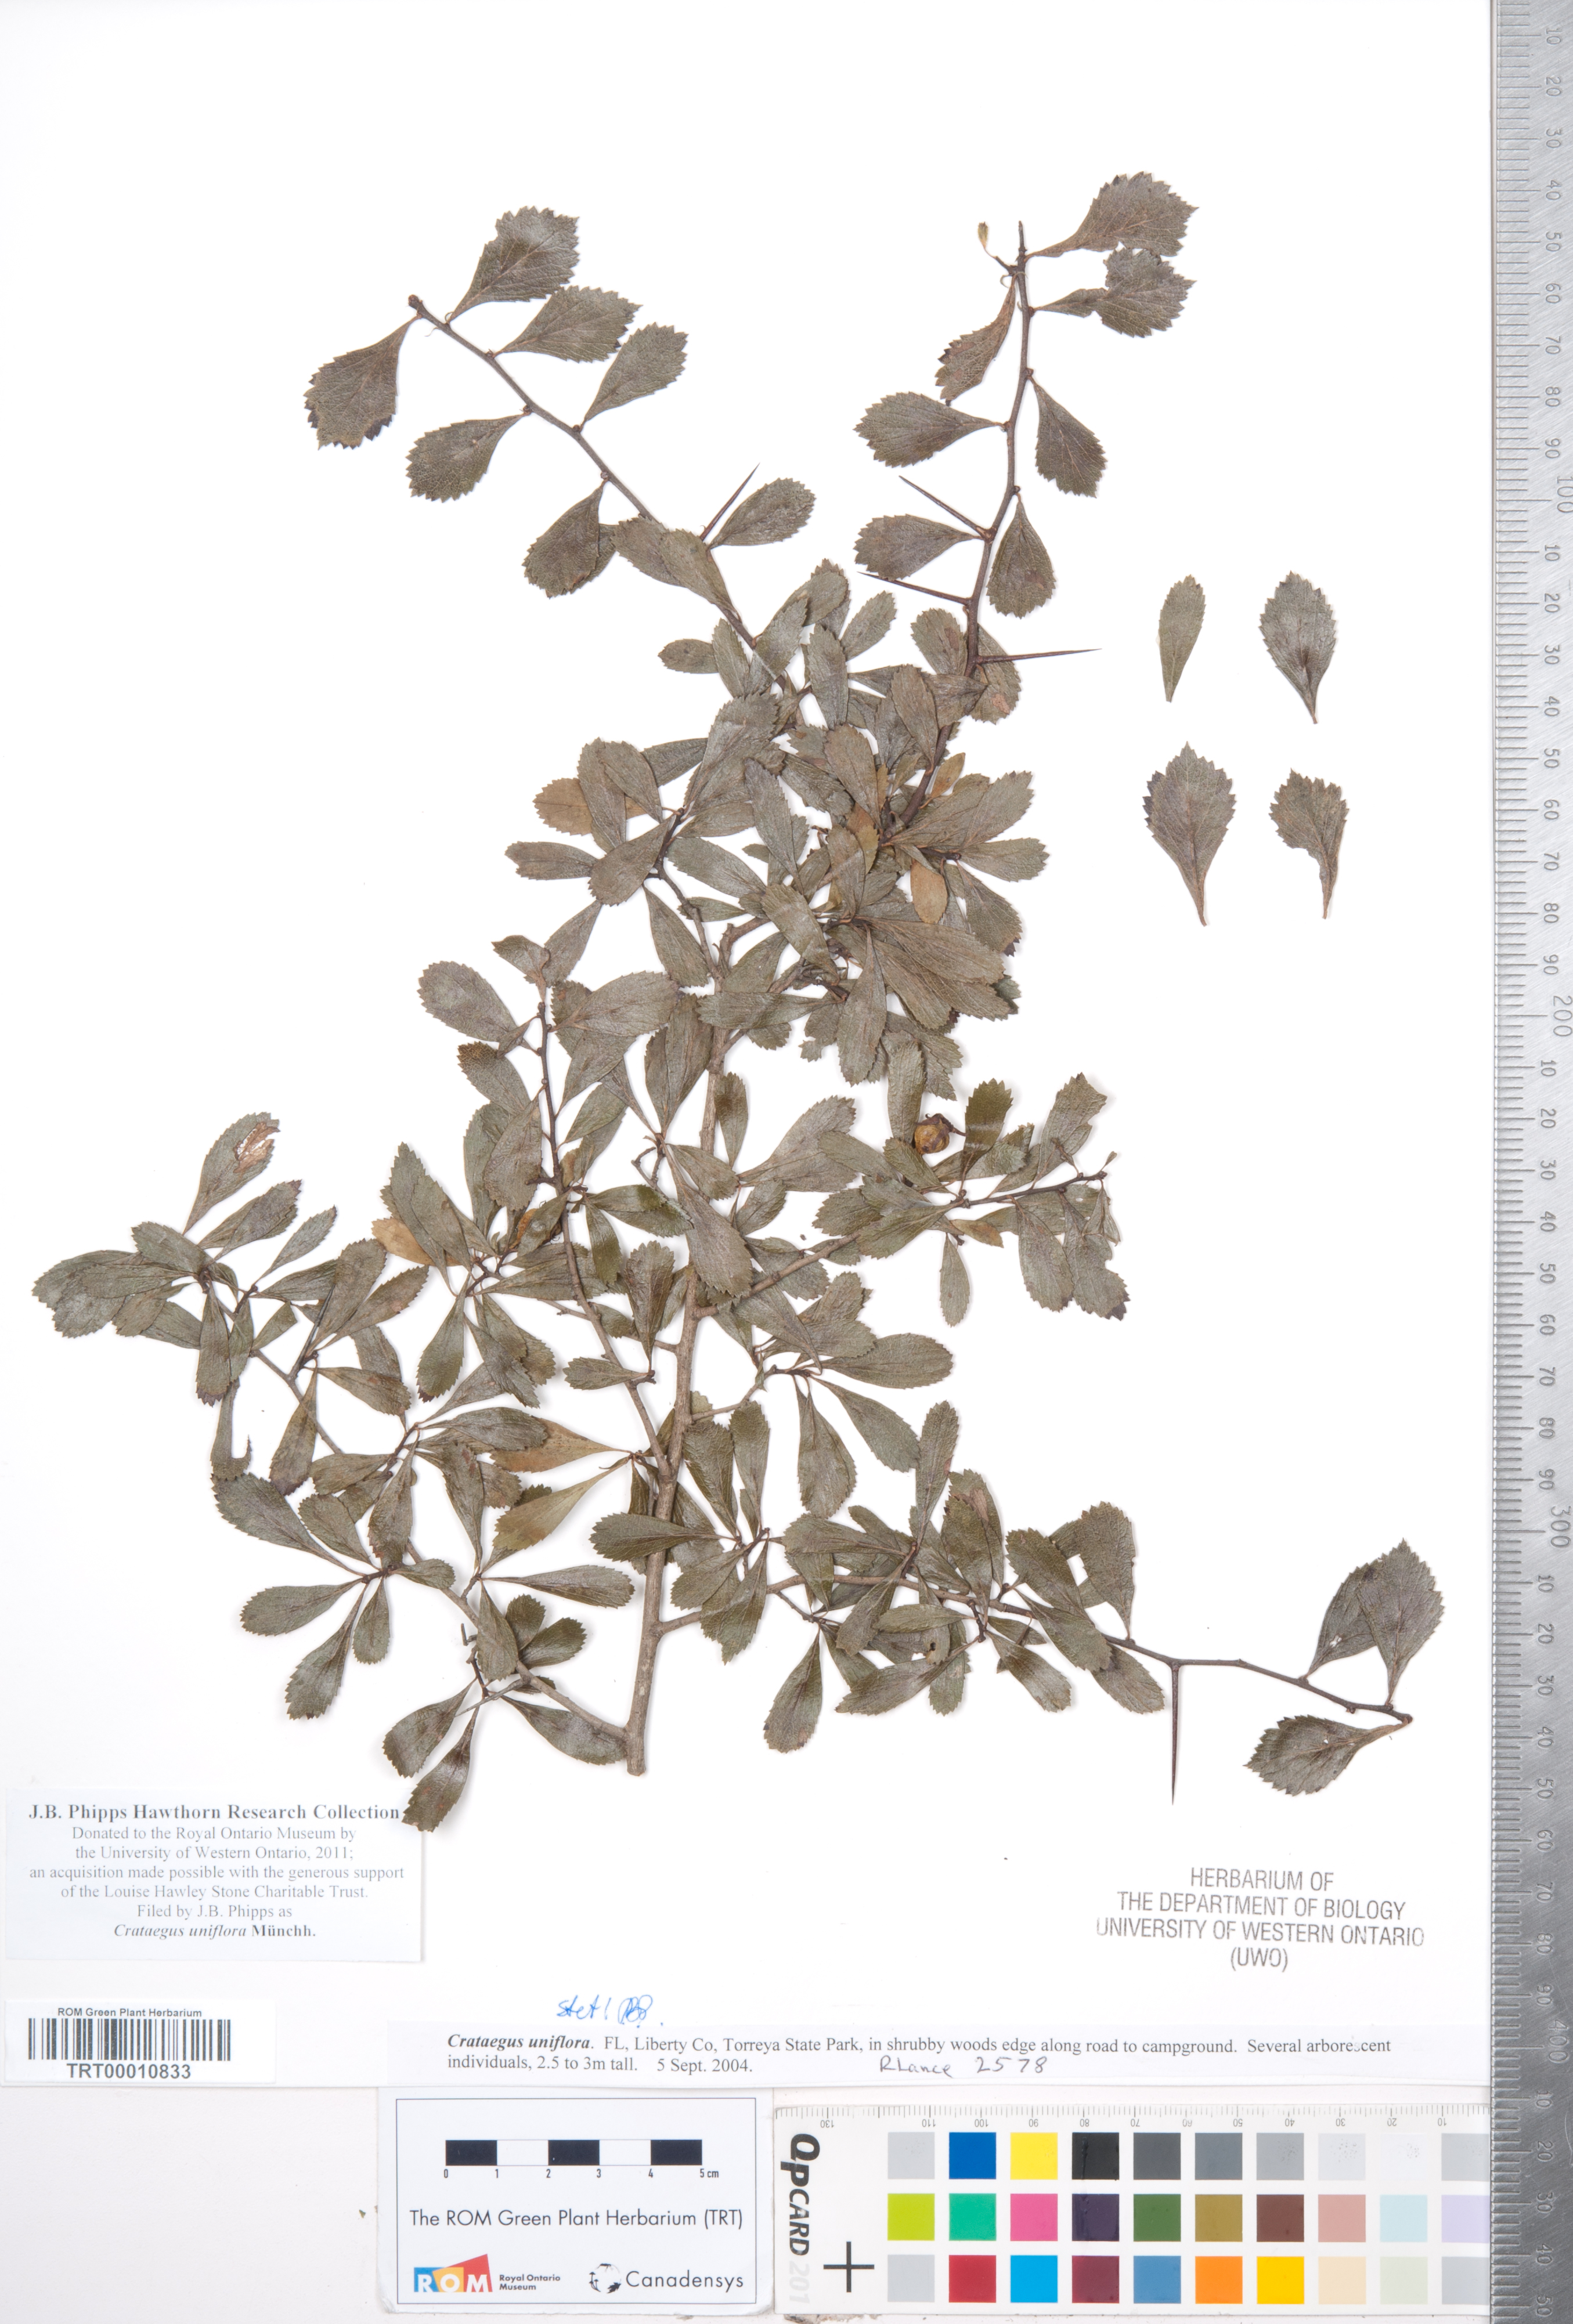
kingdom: Plantae
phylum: Tracheophyta
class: Magnoliopsida
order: Rosales
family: Rosaceae
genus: Crataegus
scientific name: Crataegus uniflora
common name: One-flower hawthorn
